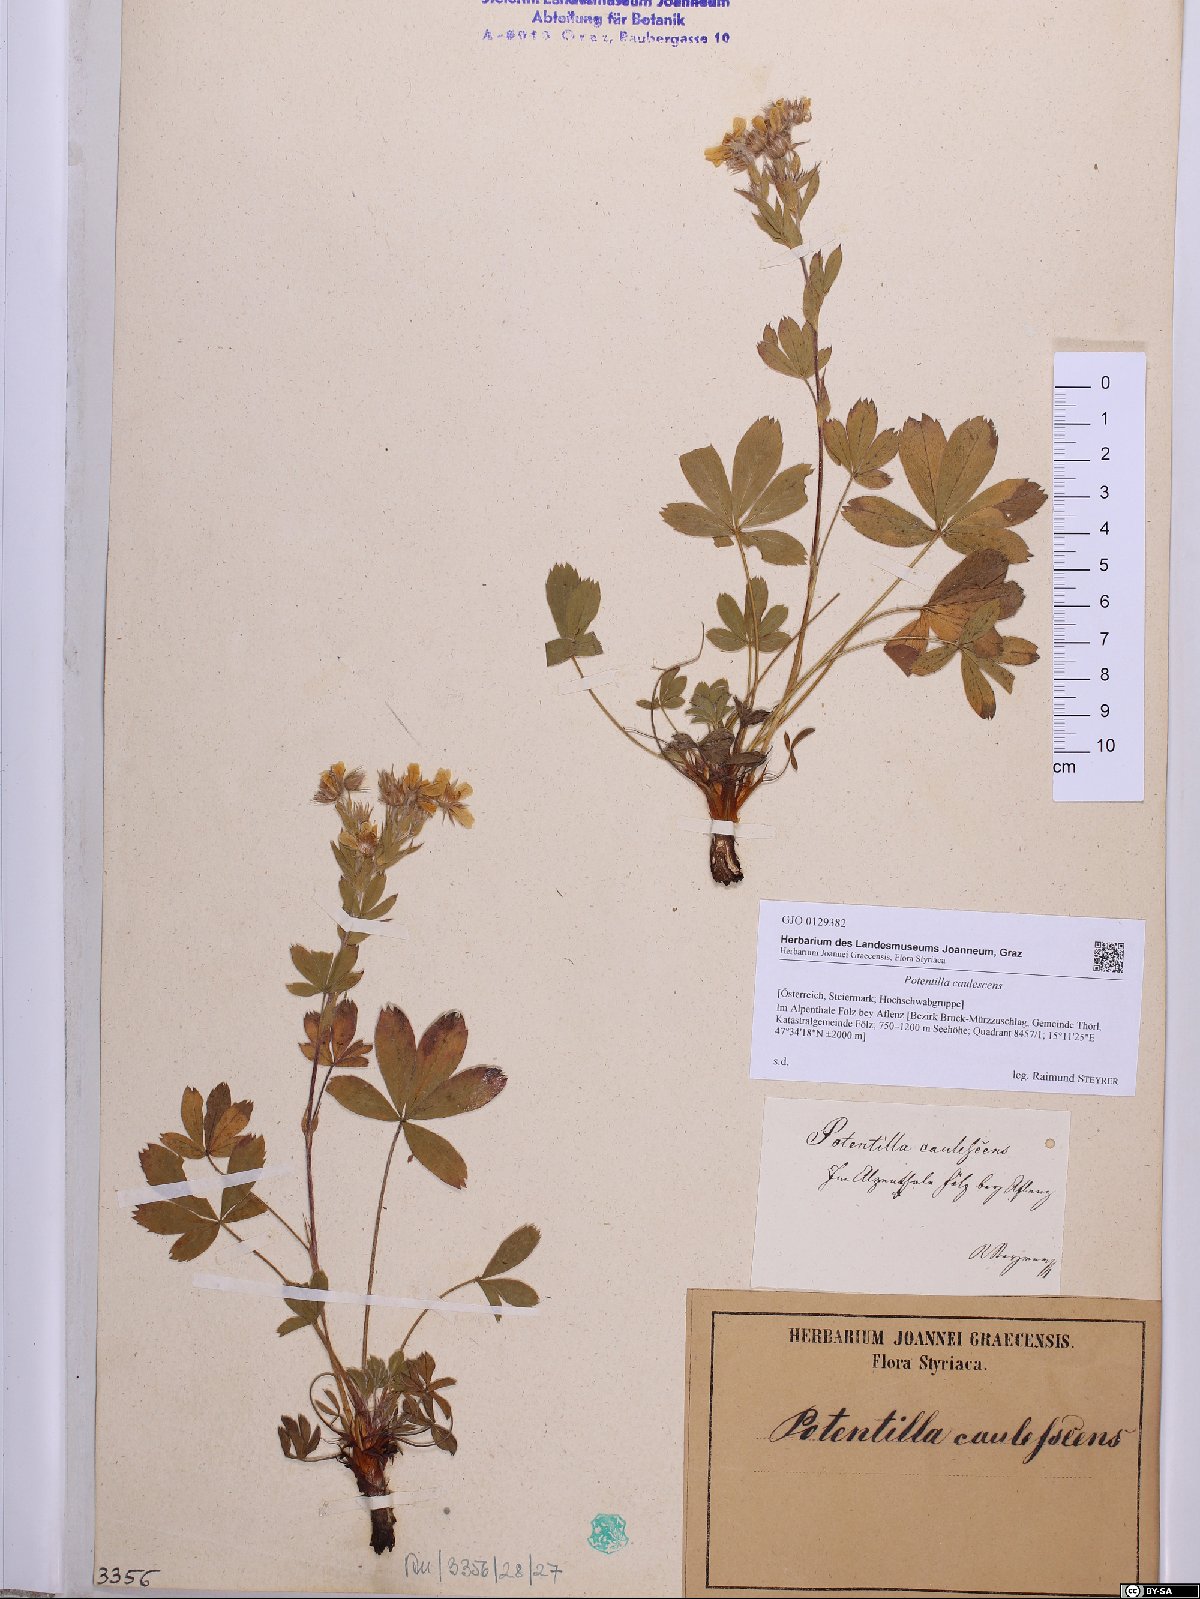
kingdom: Plantae
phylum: Tracheophyta
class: Magnoliopsida
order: Rosales
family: Rosaceae
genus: Potentilla
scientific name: Potentilla caulescens
